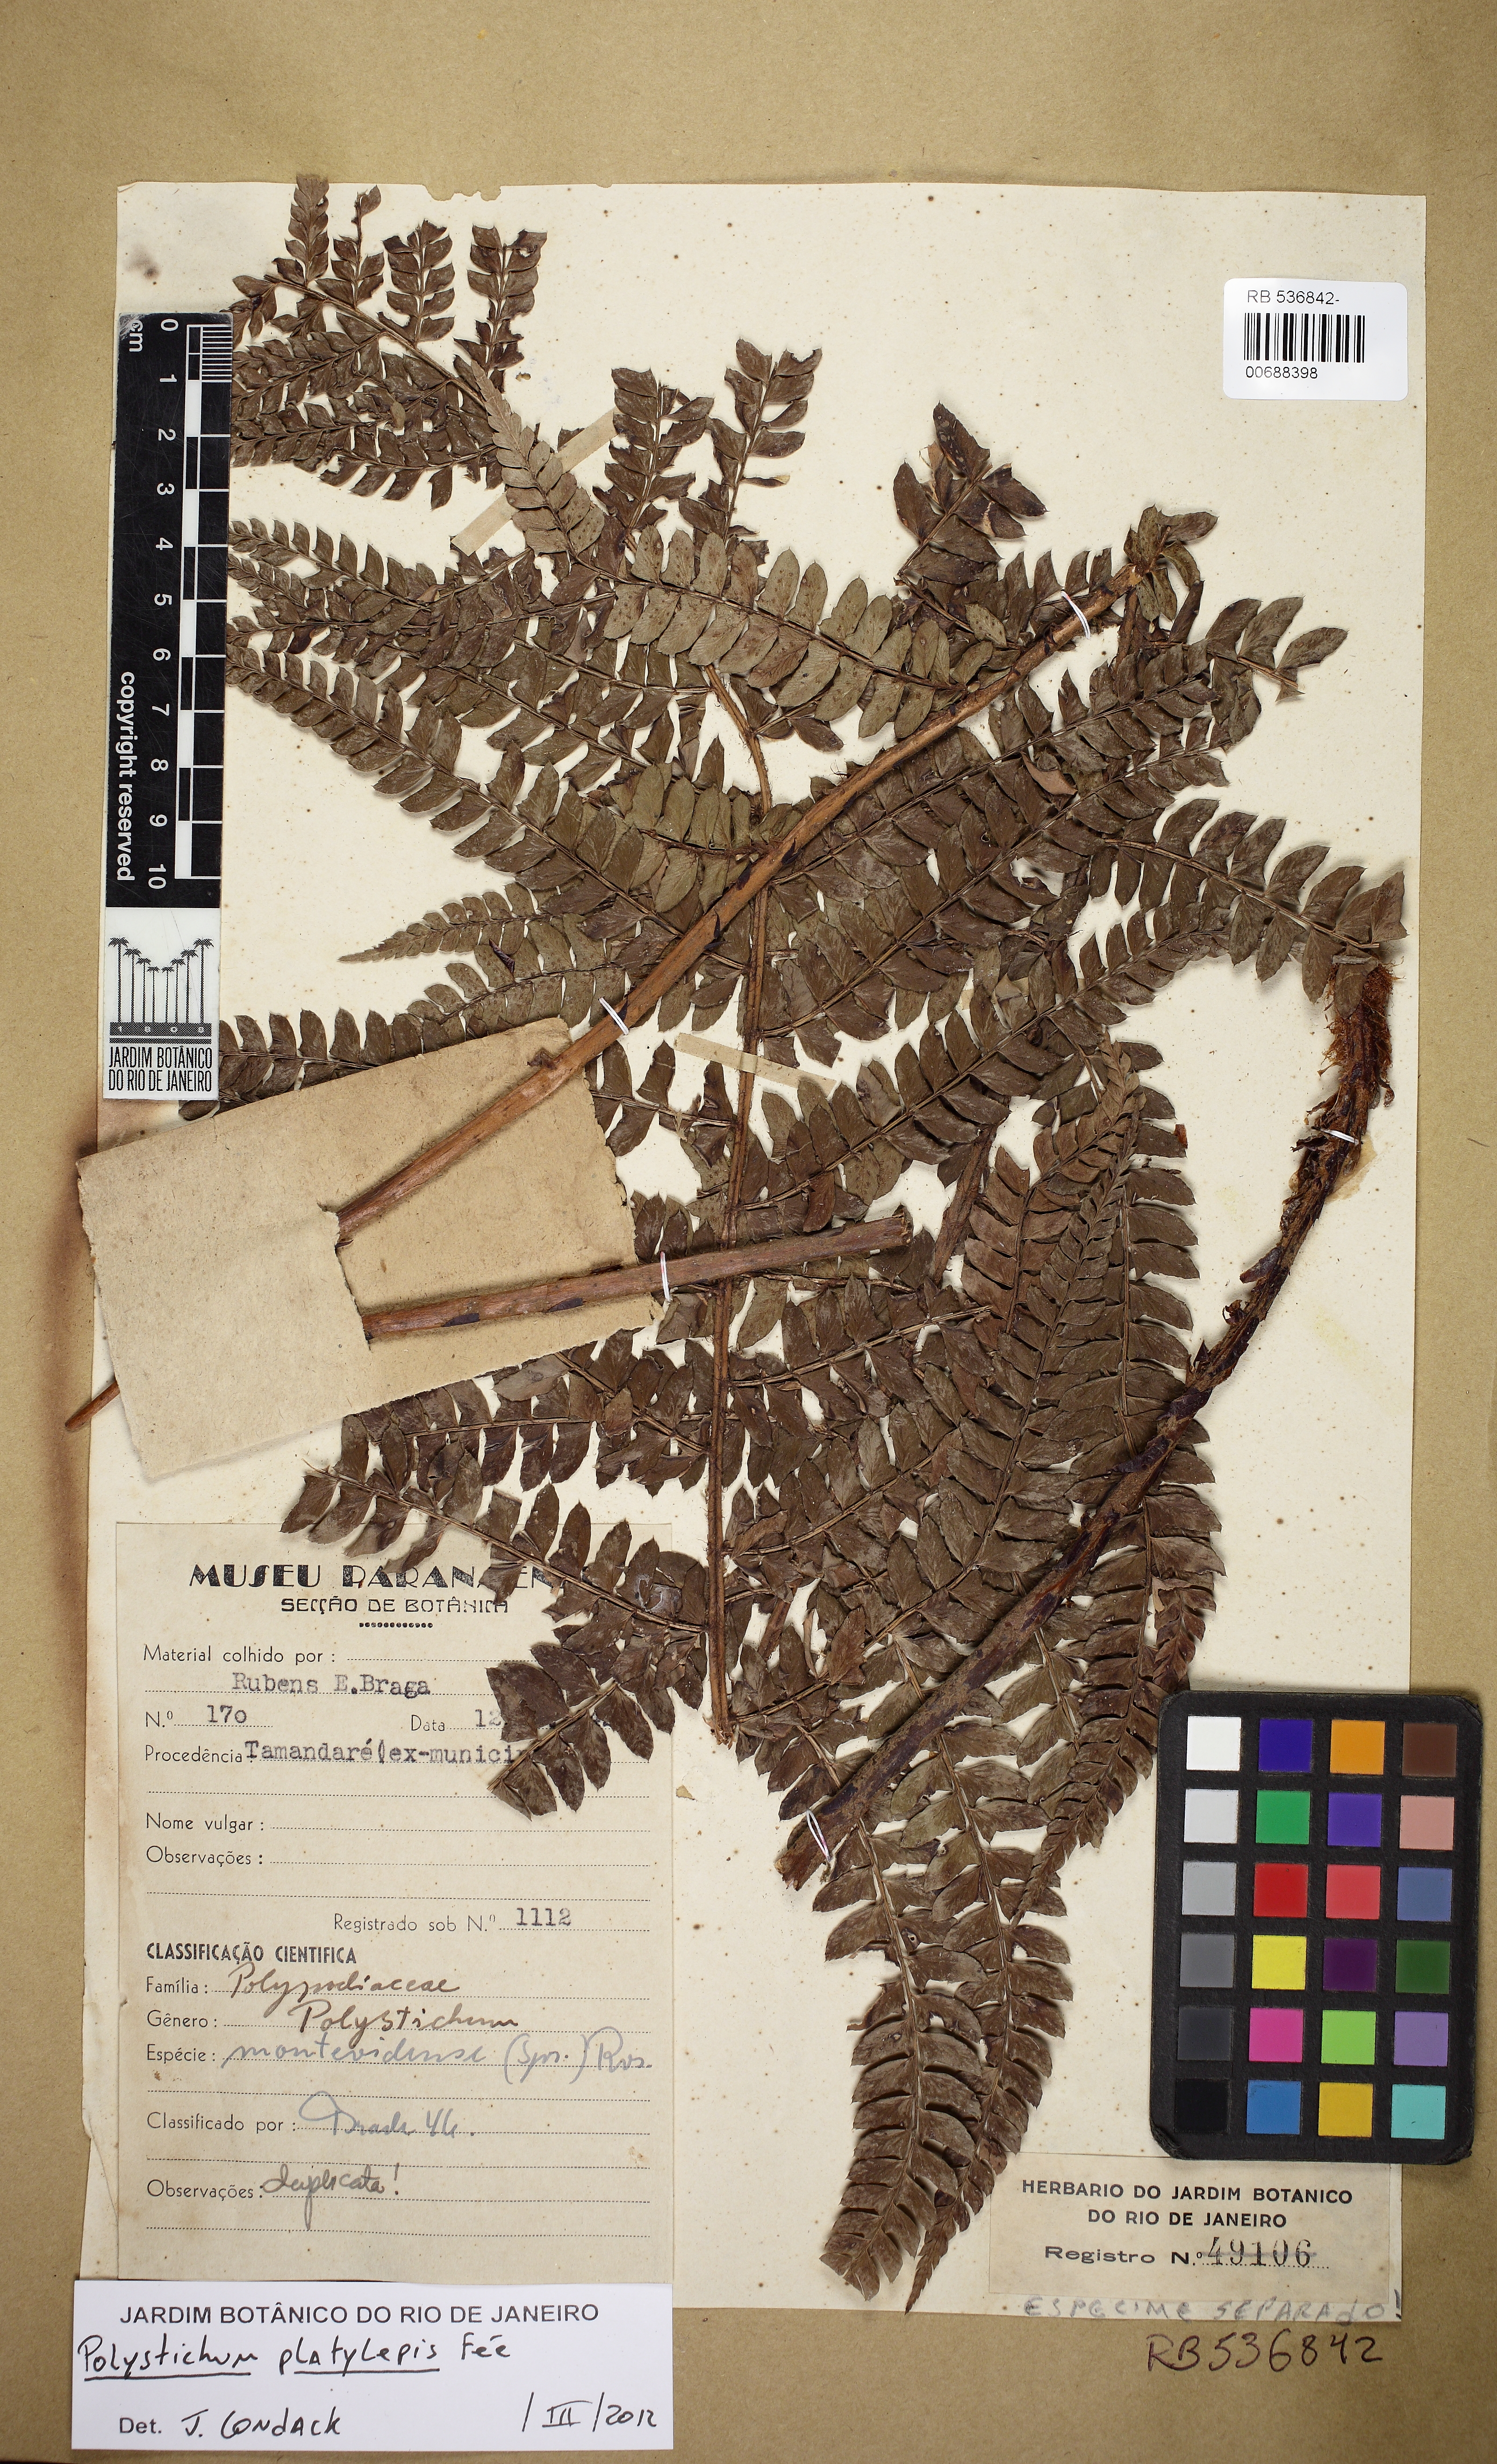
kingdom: Plantae
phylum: Tracheophyta
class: Polypodiopsida
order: Polypodiales
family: Dryopteridaceae
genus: Polystichum
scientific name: Polystichum platylepis
